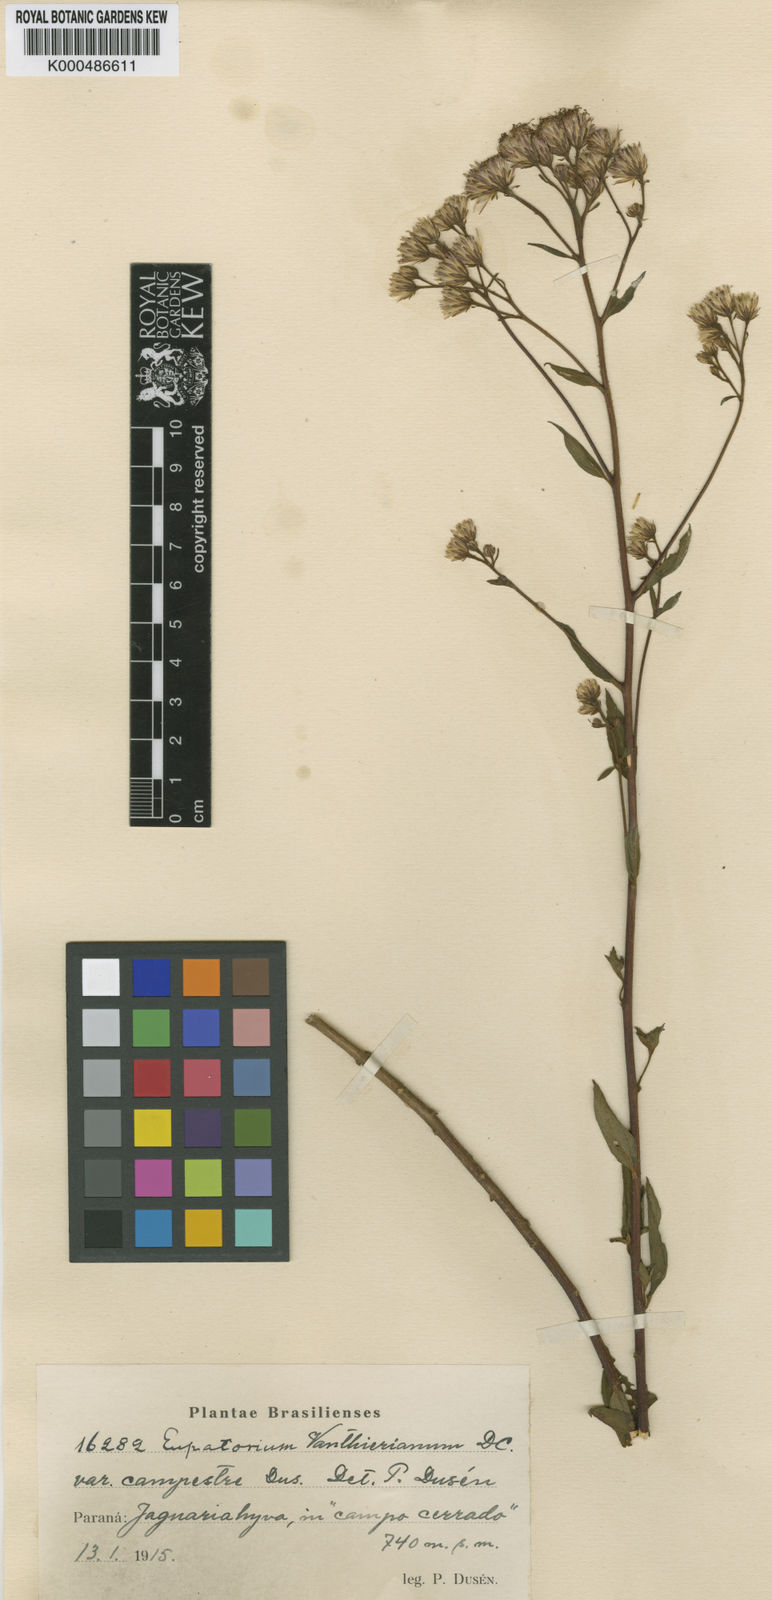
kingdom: Plantae
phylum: Tracheophyta
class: Magnoliopsida
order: Asterales
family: Asteraceae
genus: Heterocondylus
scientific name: Heterocondylus alatus
